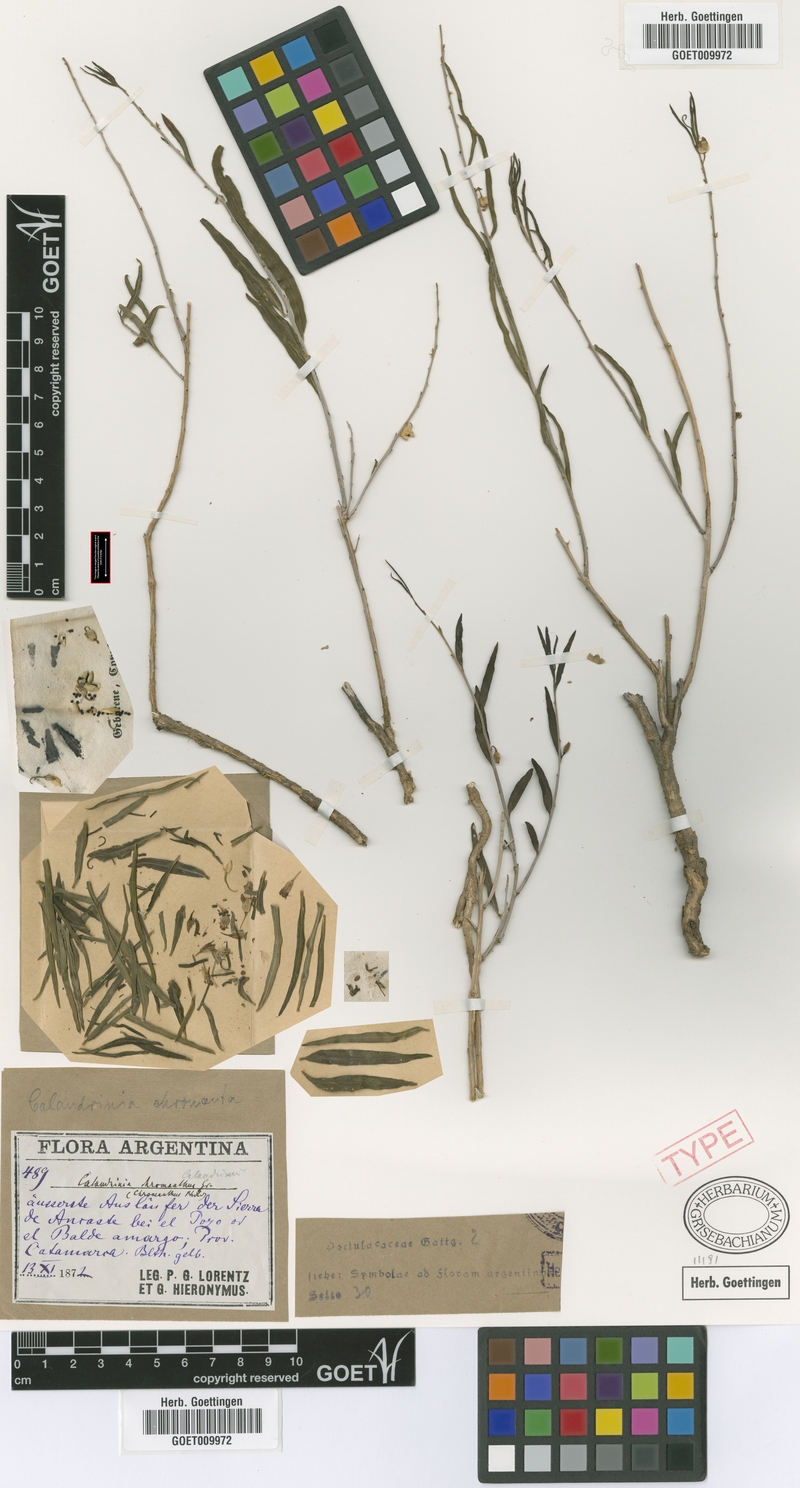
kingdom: Plantae
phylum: Tracheophyta
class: Magnoliopsida
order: Caryophyllales
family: Talinaceae
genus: Talinum
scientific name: Talinum polygaloides
